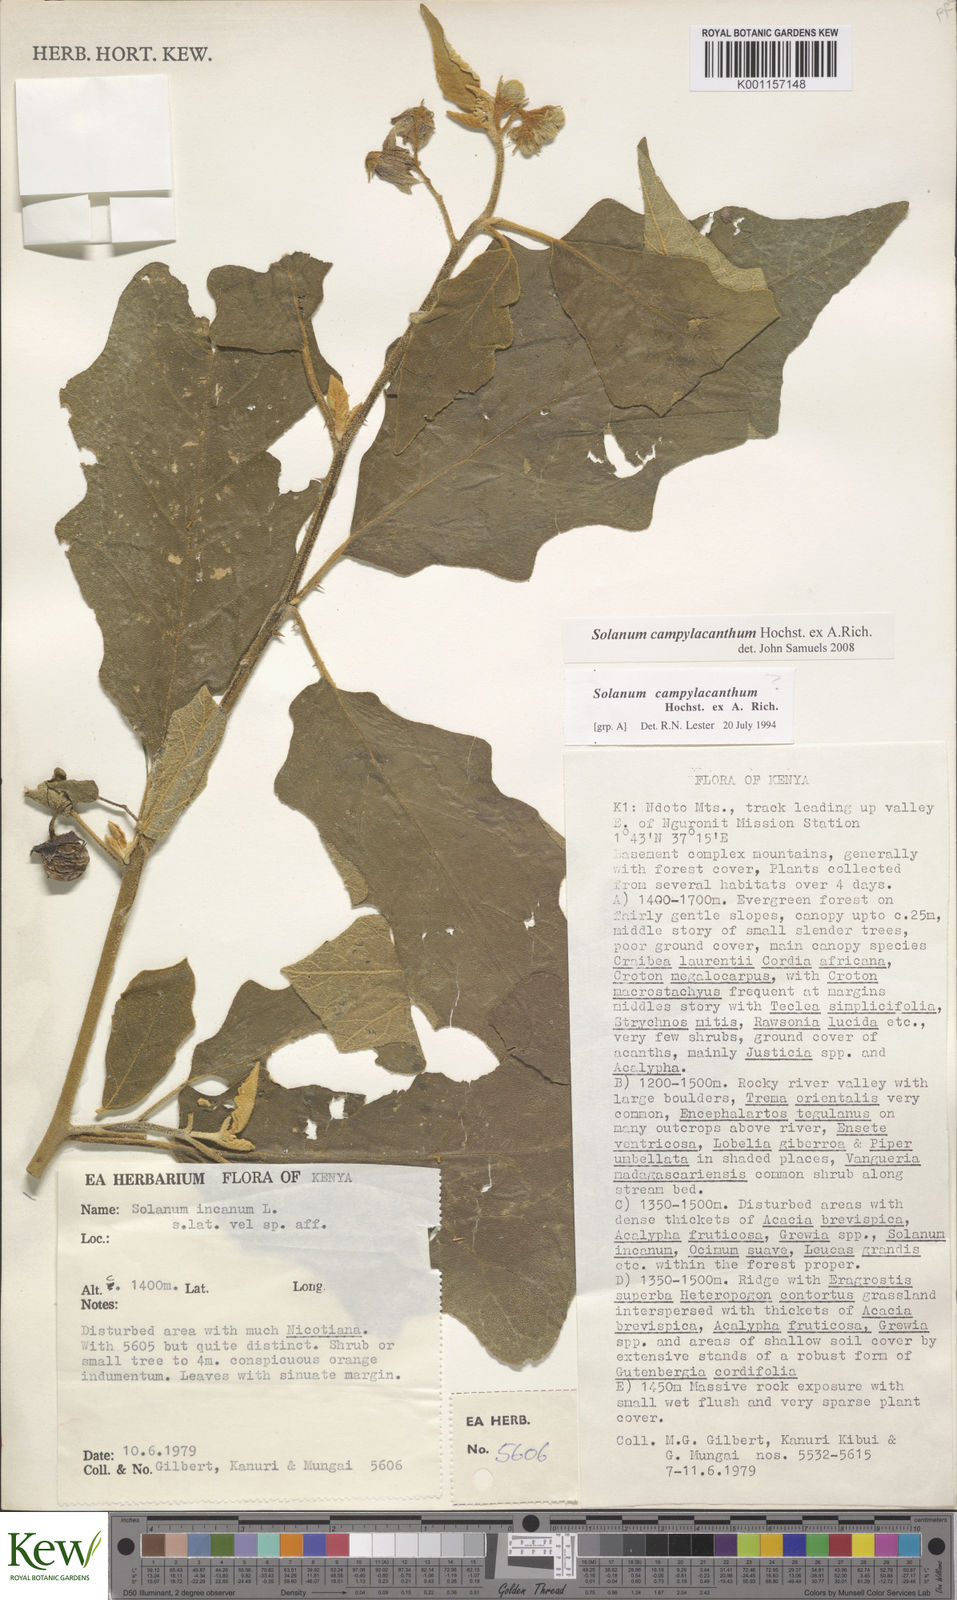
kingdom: Plantae
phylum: Tracheophyta
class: Magnoliopsida
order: Solanales
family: Solanaceae
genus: Solanum
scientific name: Solanum campylacanthum
